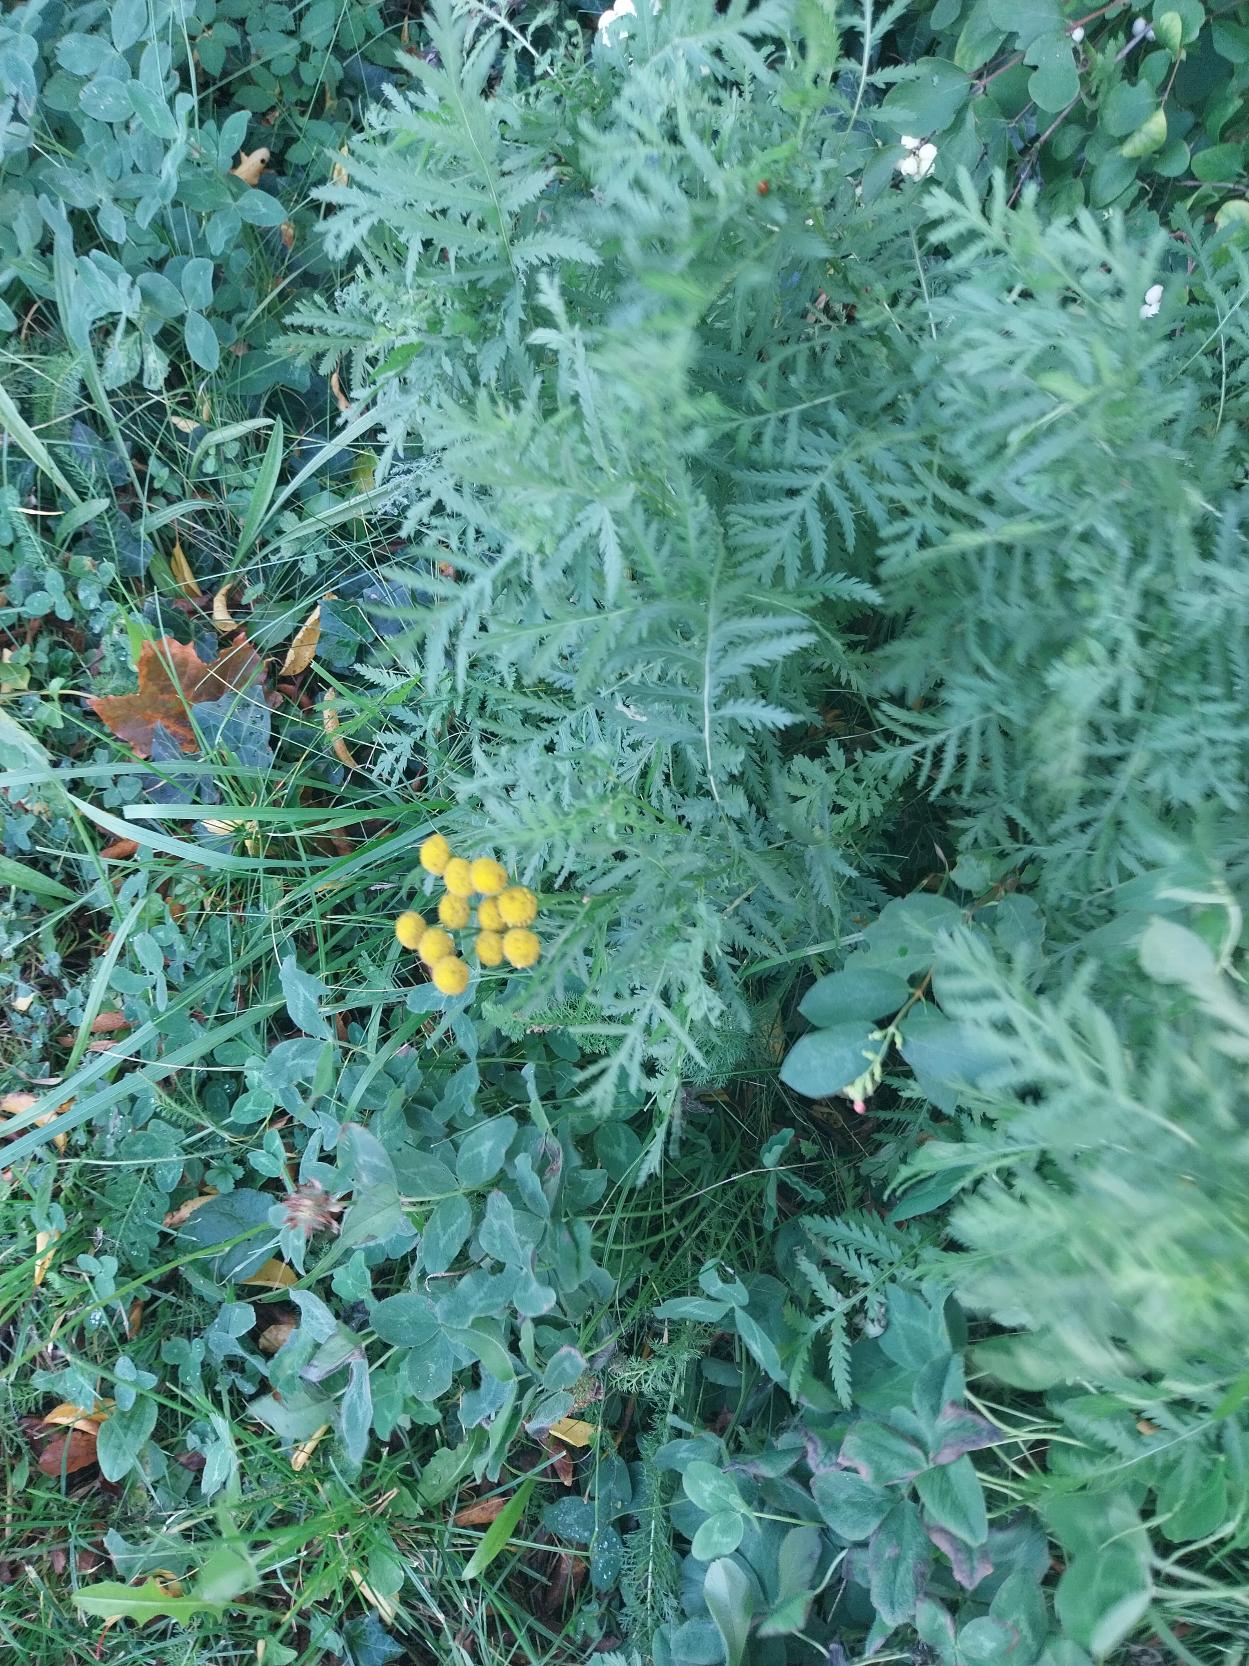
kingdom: Plantae
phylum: Tracheophyta
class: Magnoliopsida
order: Asterales
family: Asteraceae
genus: Tanacetum
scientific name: Tanacetum vulgare
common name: Rejnfan
